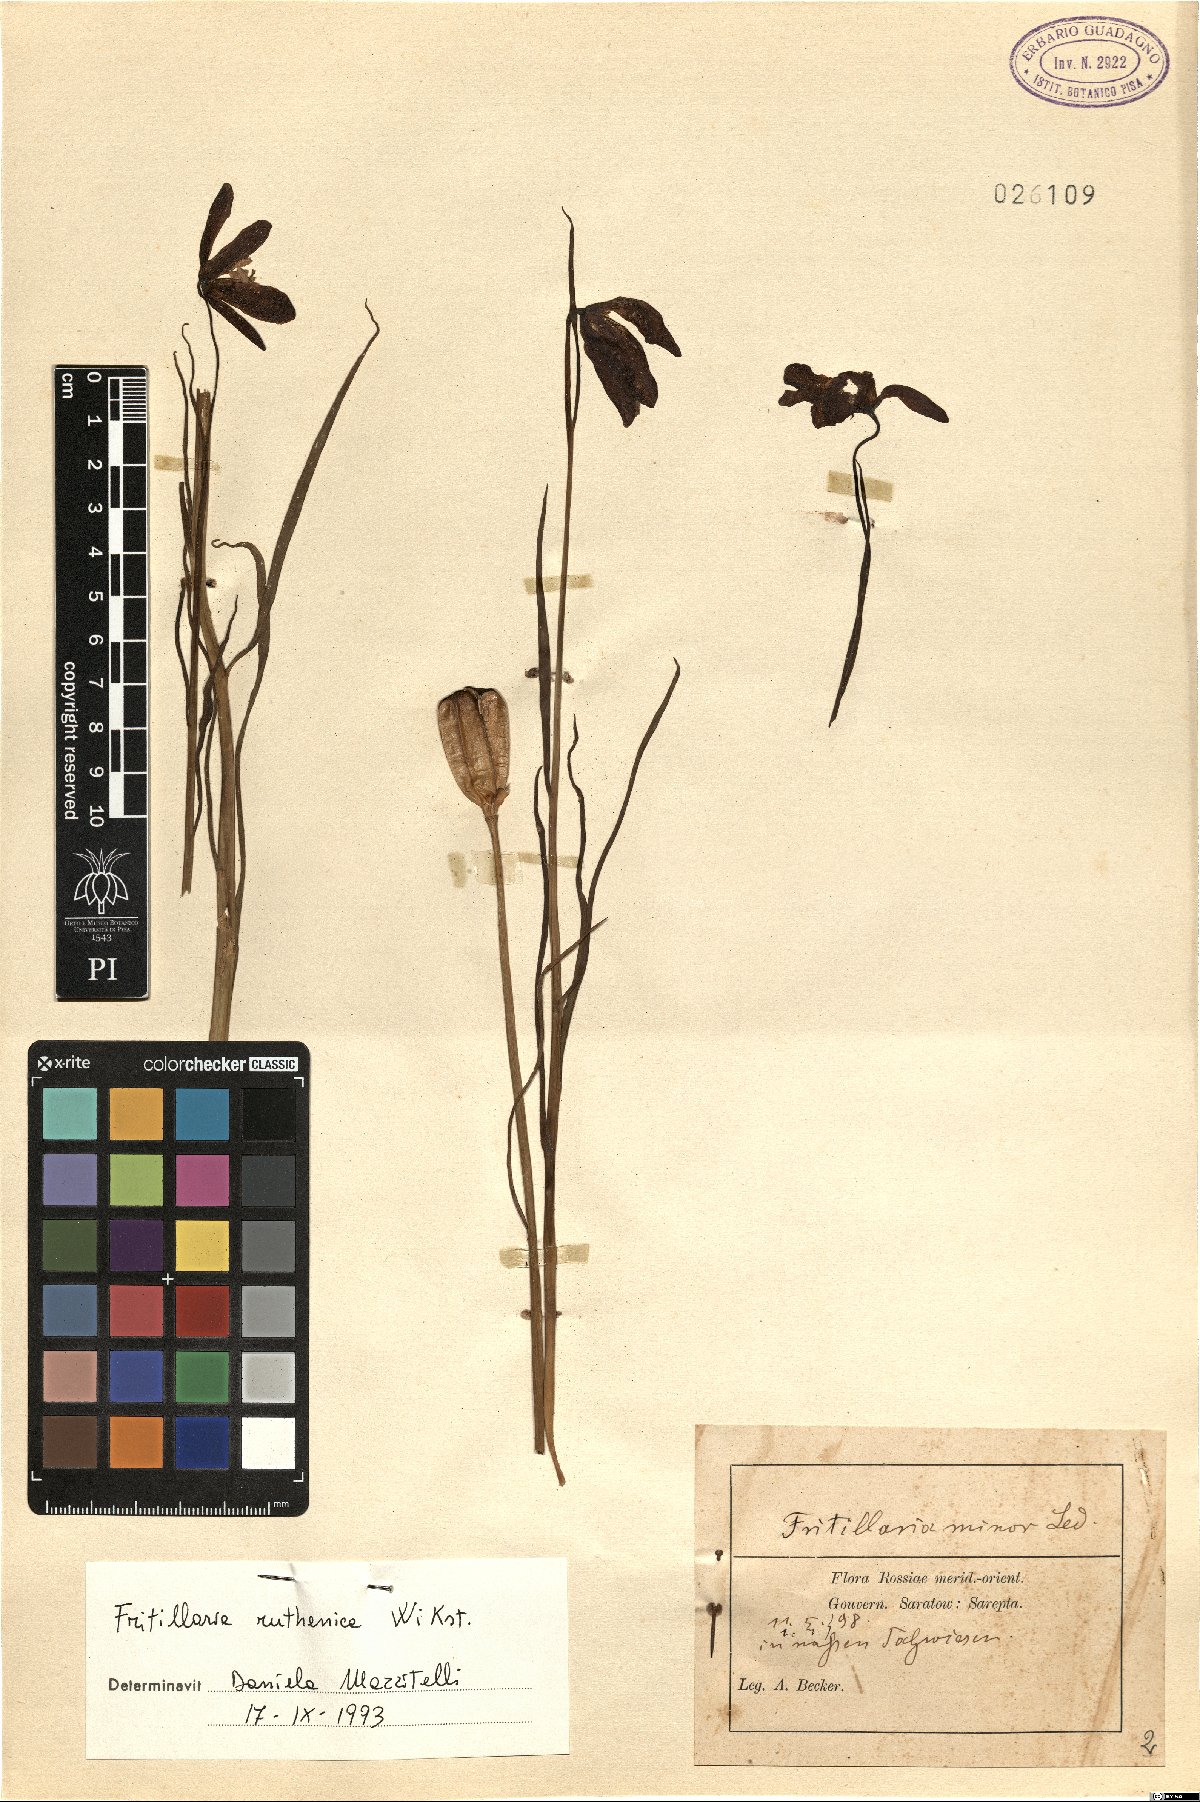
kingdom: Plantae
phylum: Tracheophyta
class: Liliopsida
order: Liliales
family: Liliaceae
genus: Fritillaria
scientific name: Fritillaria ruthenica
